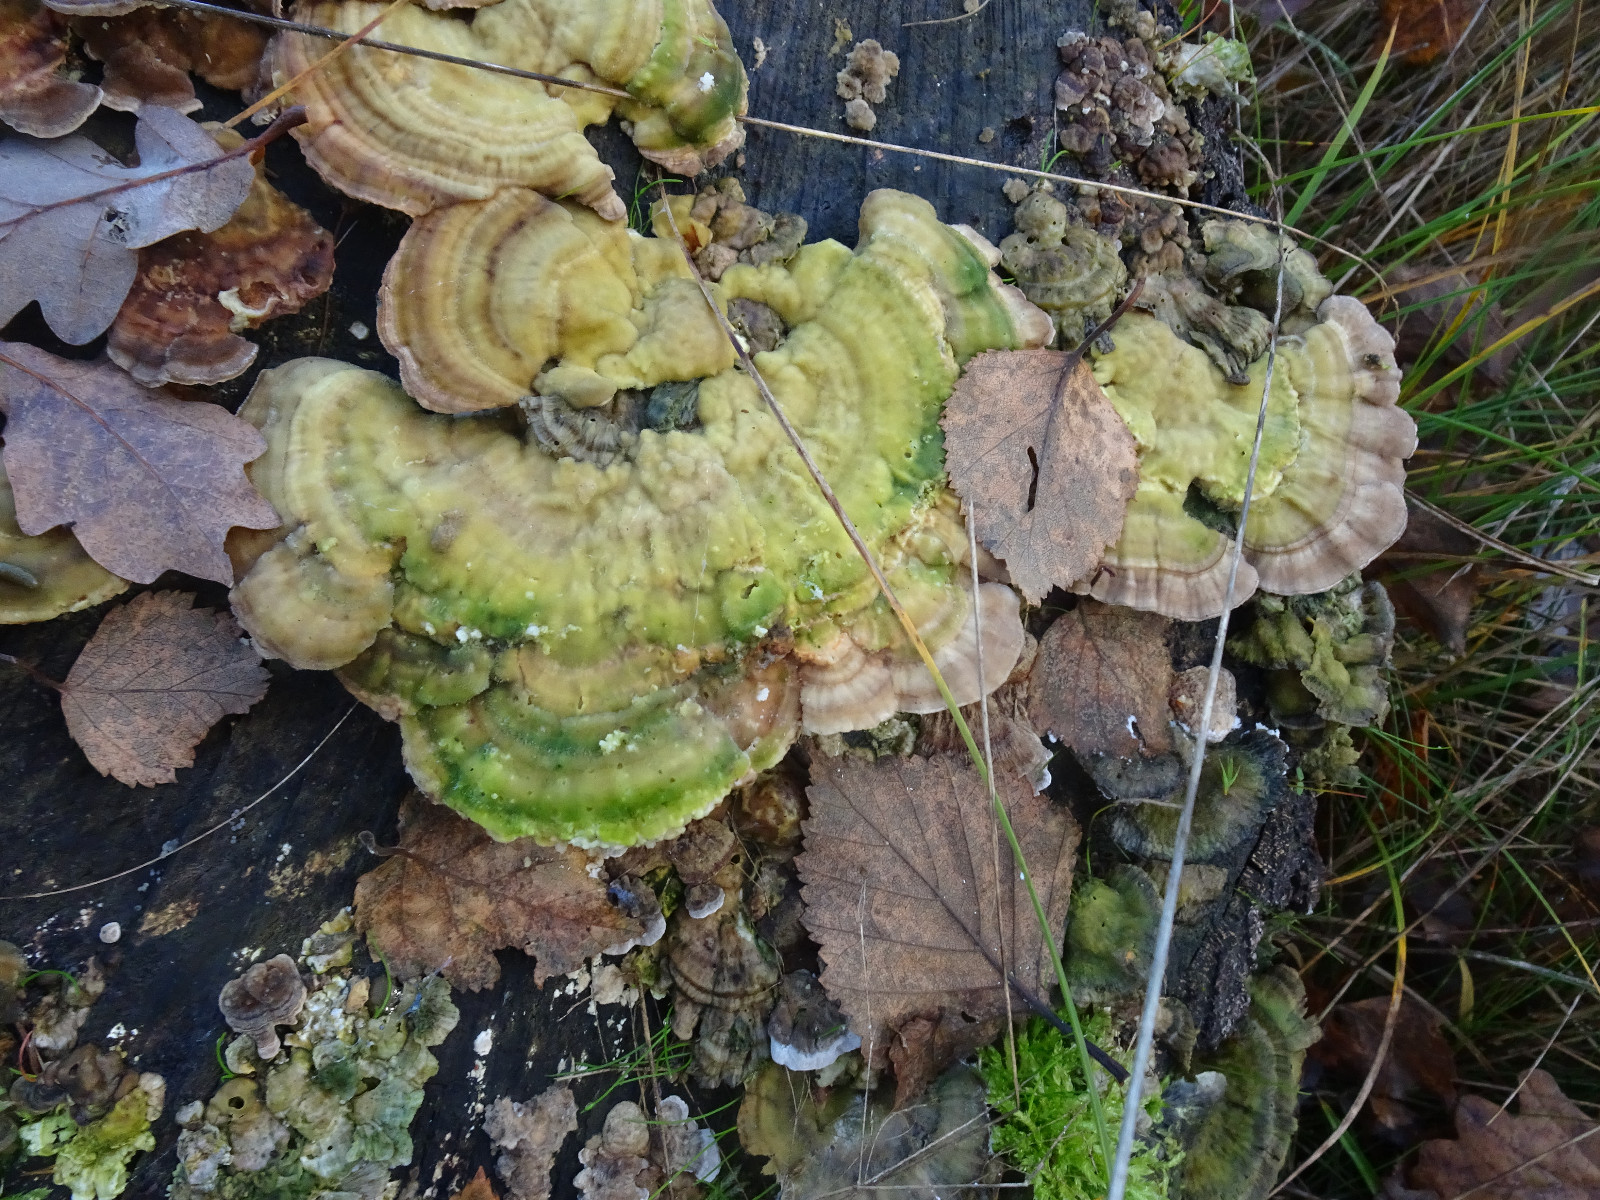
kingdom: Fungi
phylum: Basidiomycota
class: Agaricomycetes
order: Polyporales
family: Polyporaceae
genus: Trametes
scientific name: Trametes
